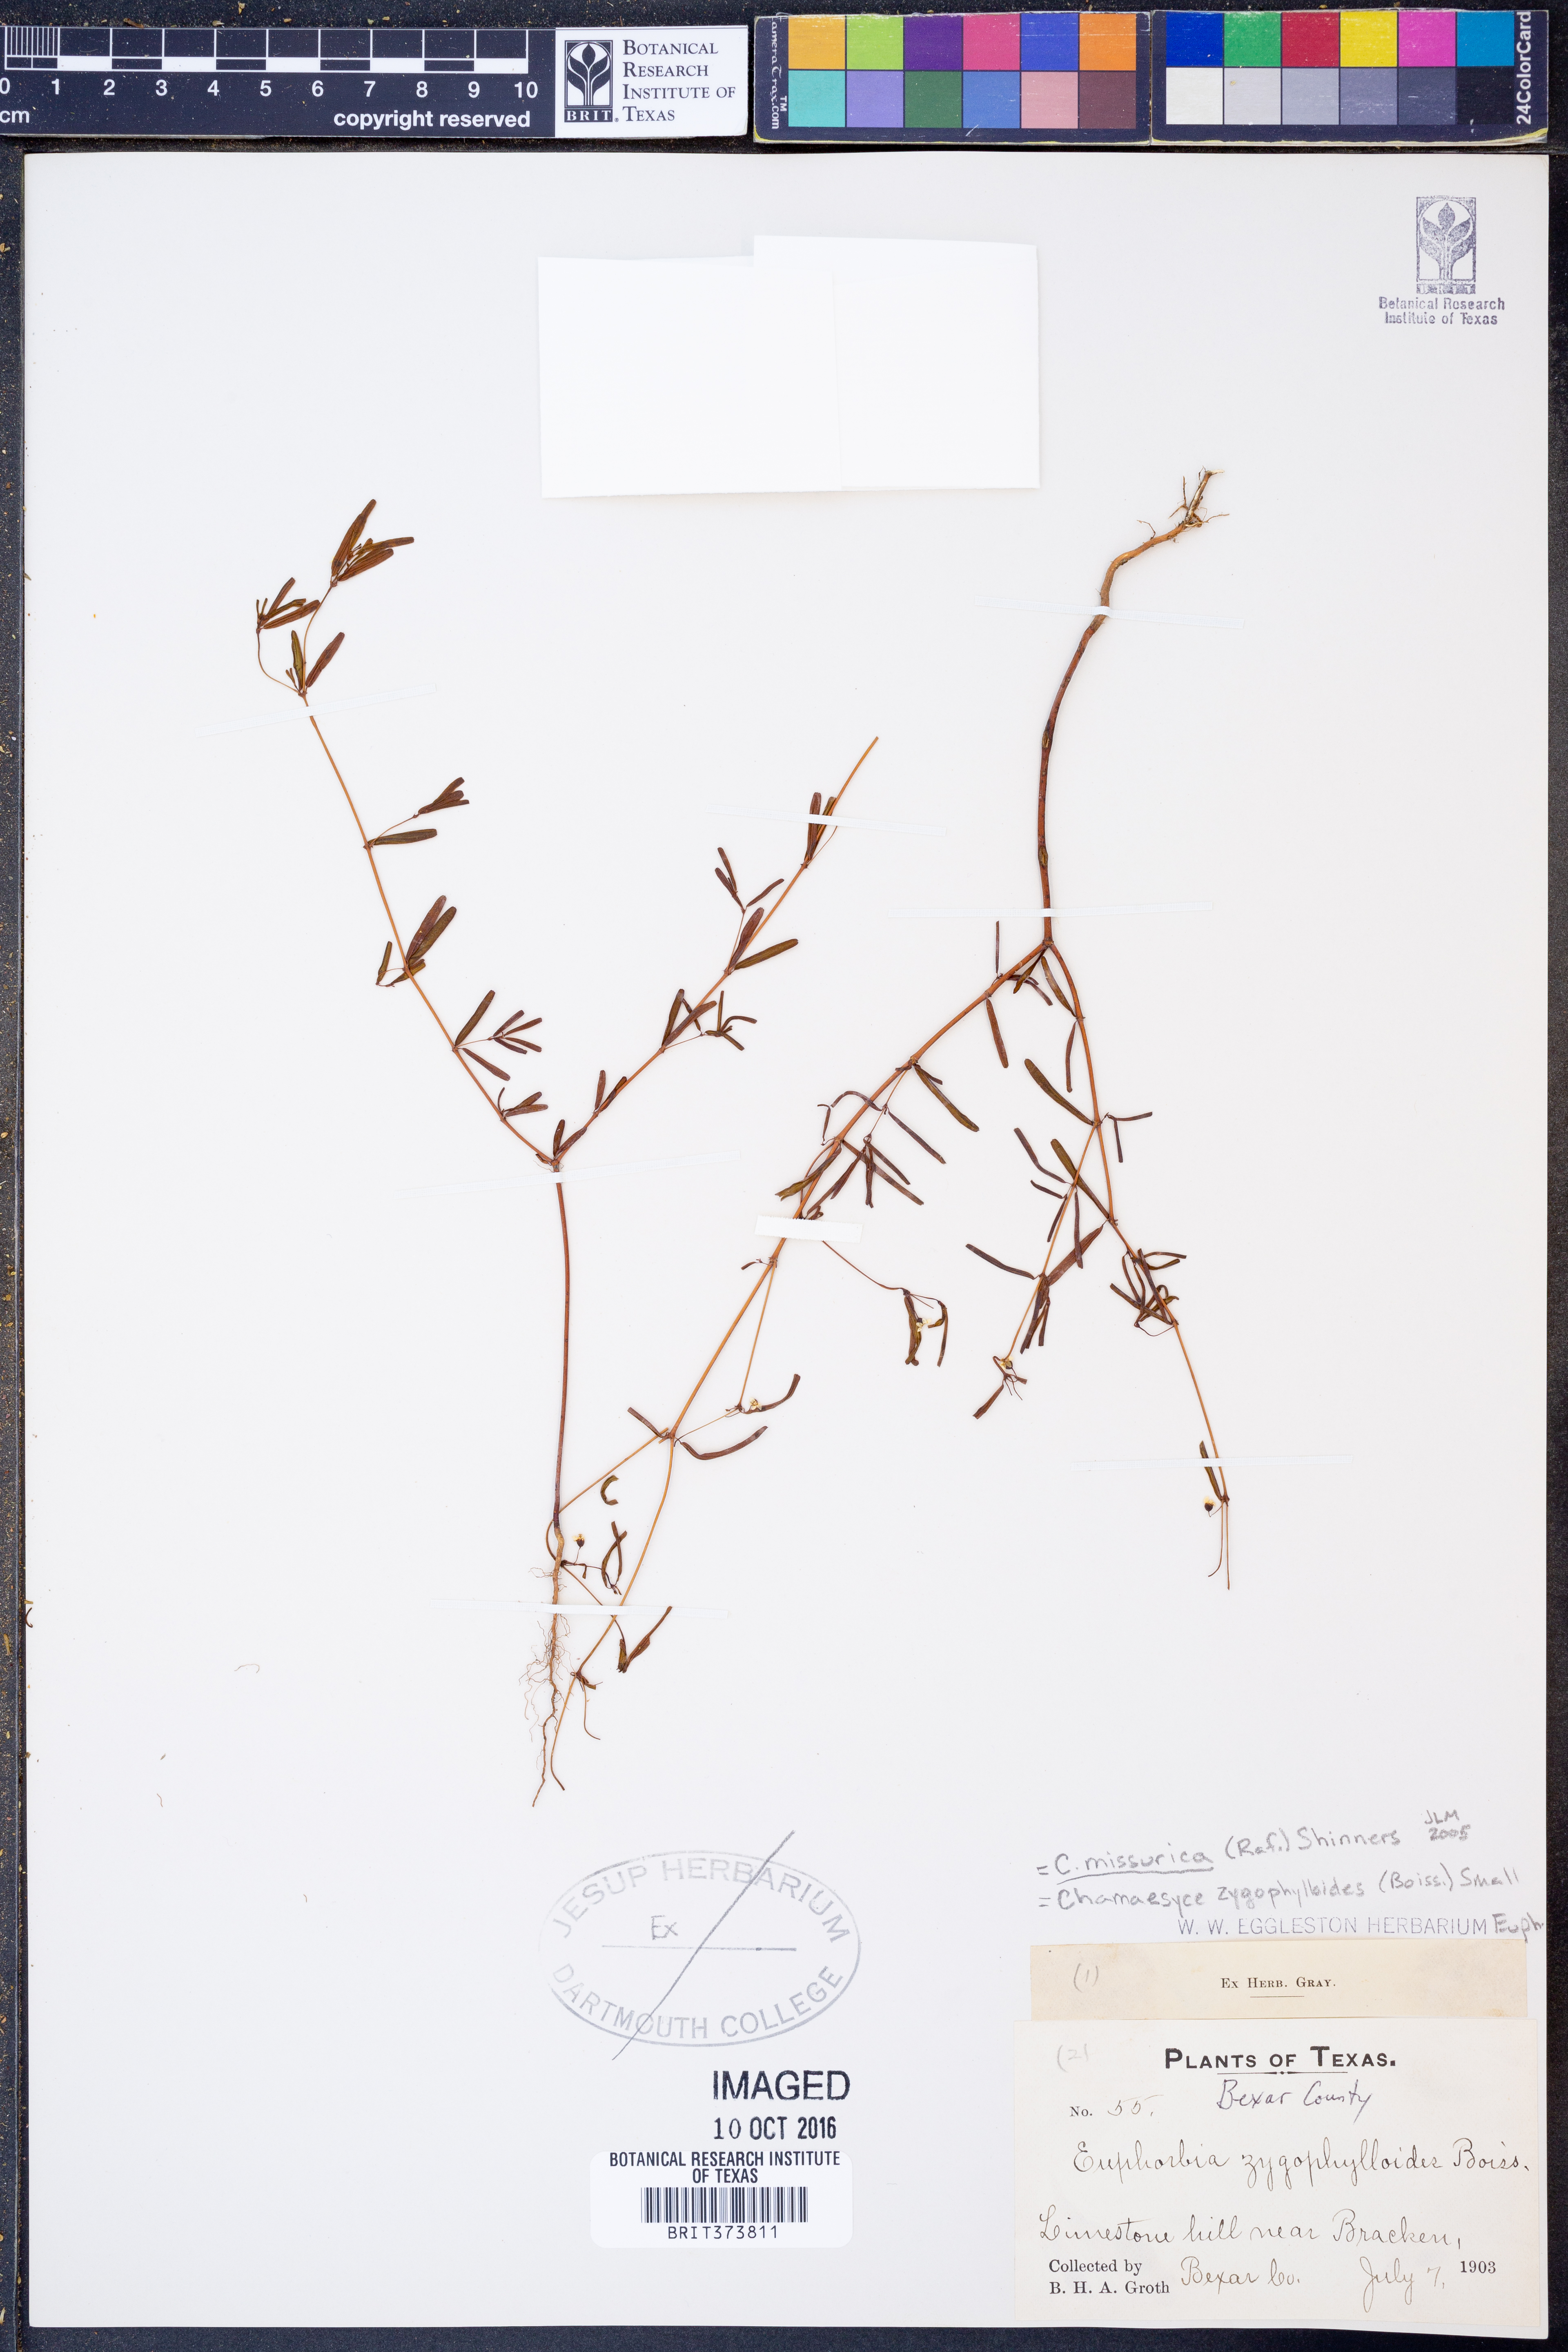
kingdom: Plantae
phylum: Tracheophyta
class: Magnoliopsida
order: Malpighiales
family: Euphorbiaceae
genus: Euphorbia
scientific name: Euphorbia missurica
